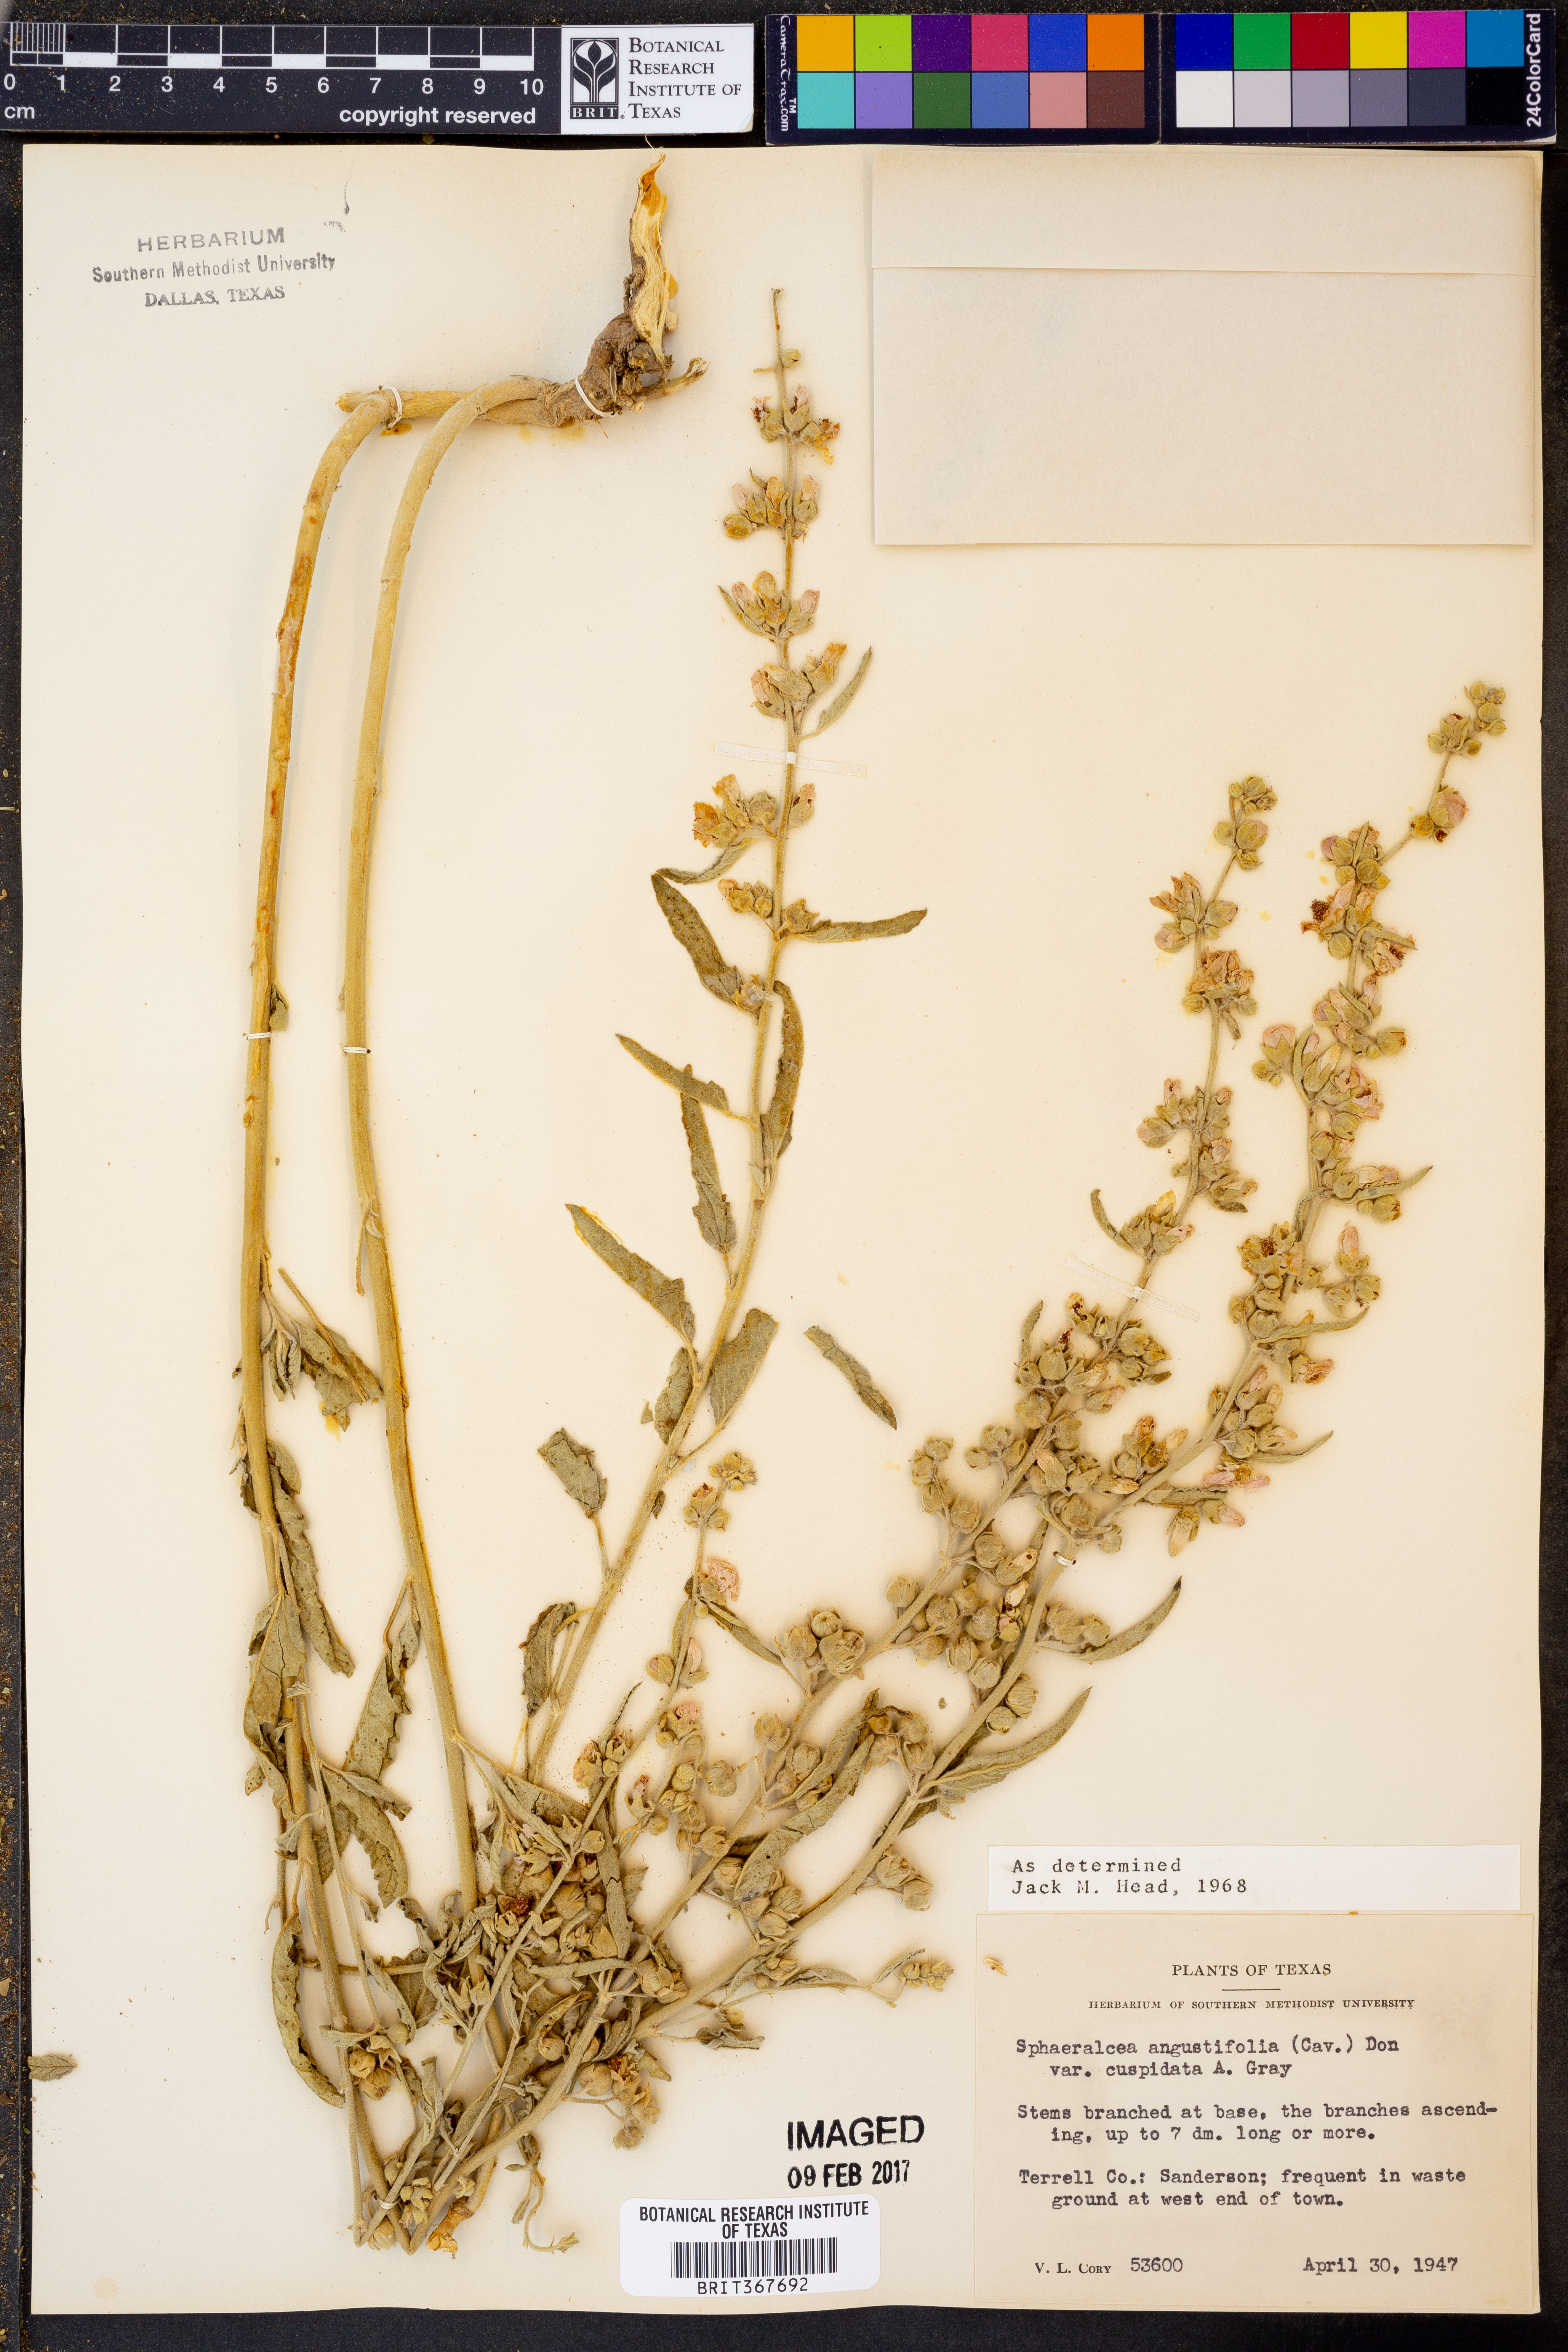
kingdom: Plantae
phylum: Tracheophyta
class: Magnoliopsida
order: Malvales
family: Malvaceae
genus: Sphaeralcea
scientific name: Sphaeralcea angustifolia
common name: Copper globe-mallow
